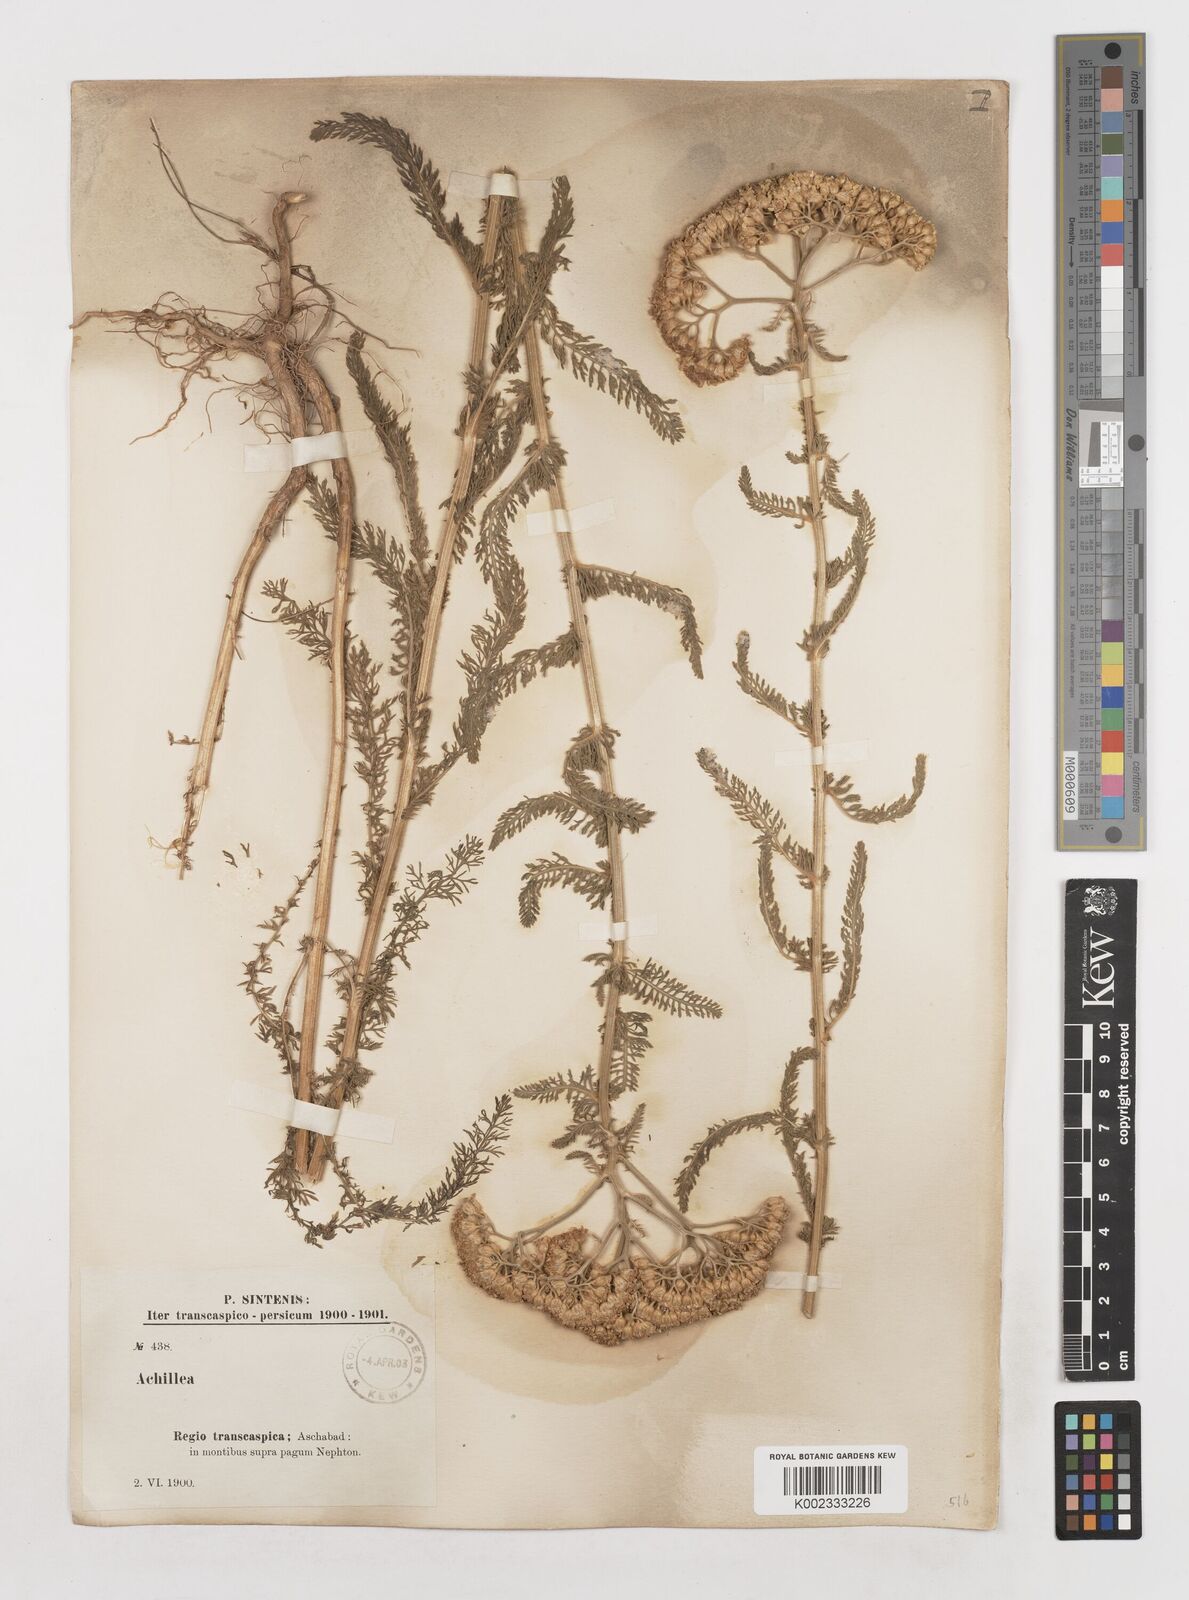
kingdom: Plantae
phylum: Tracheophyta
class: Magnoliopsida
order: Asterales
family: Asteraceae
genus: Achillea
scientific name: Achillea micrantha
